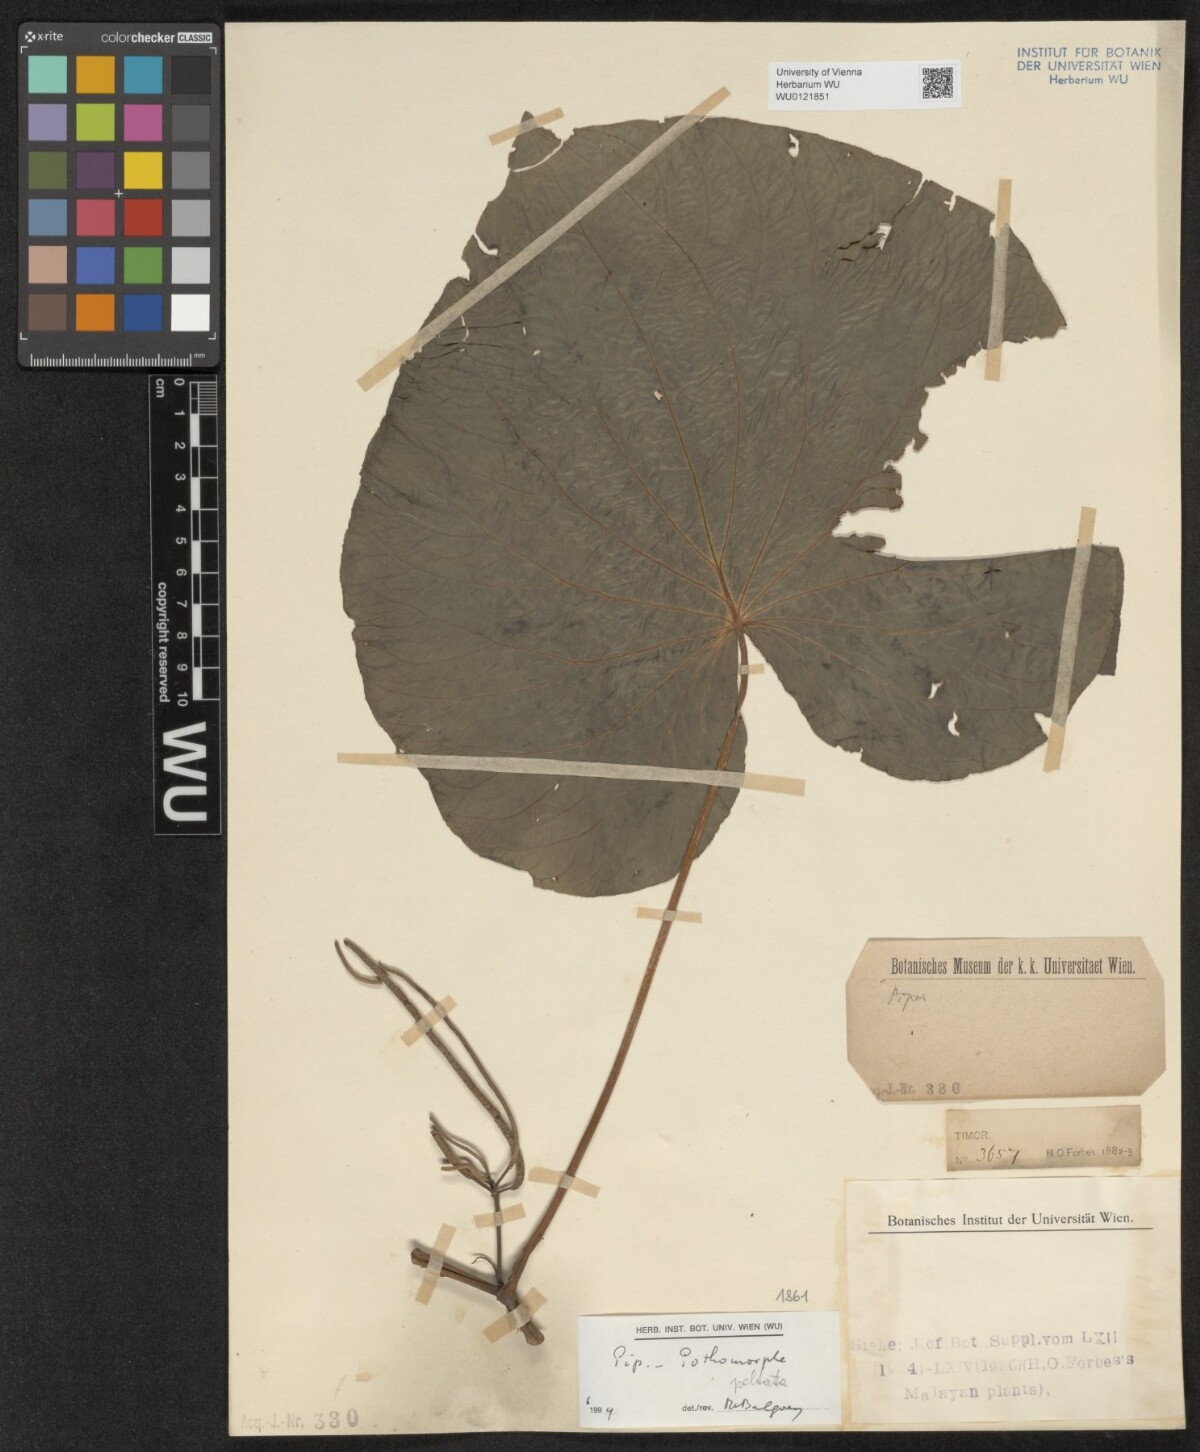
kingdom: Plantae
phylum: Tracheophyta
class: Magnoliopsida
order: Piperales
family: Piperaceae
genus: Piper
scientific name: Piper peltatum
